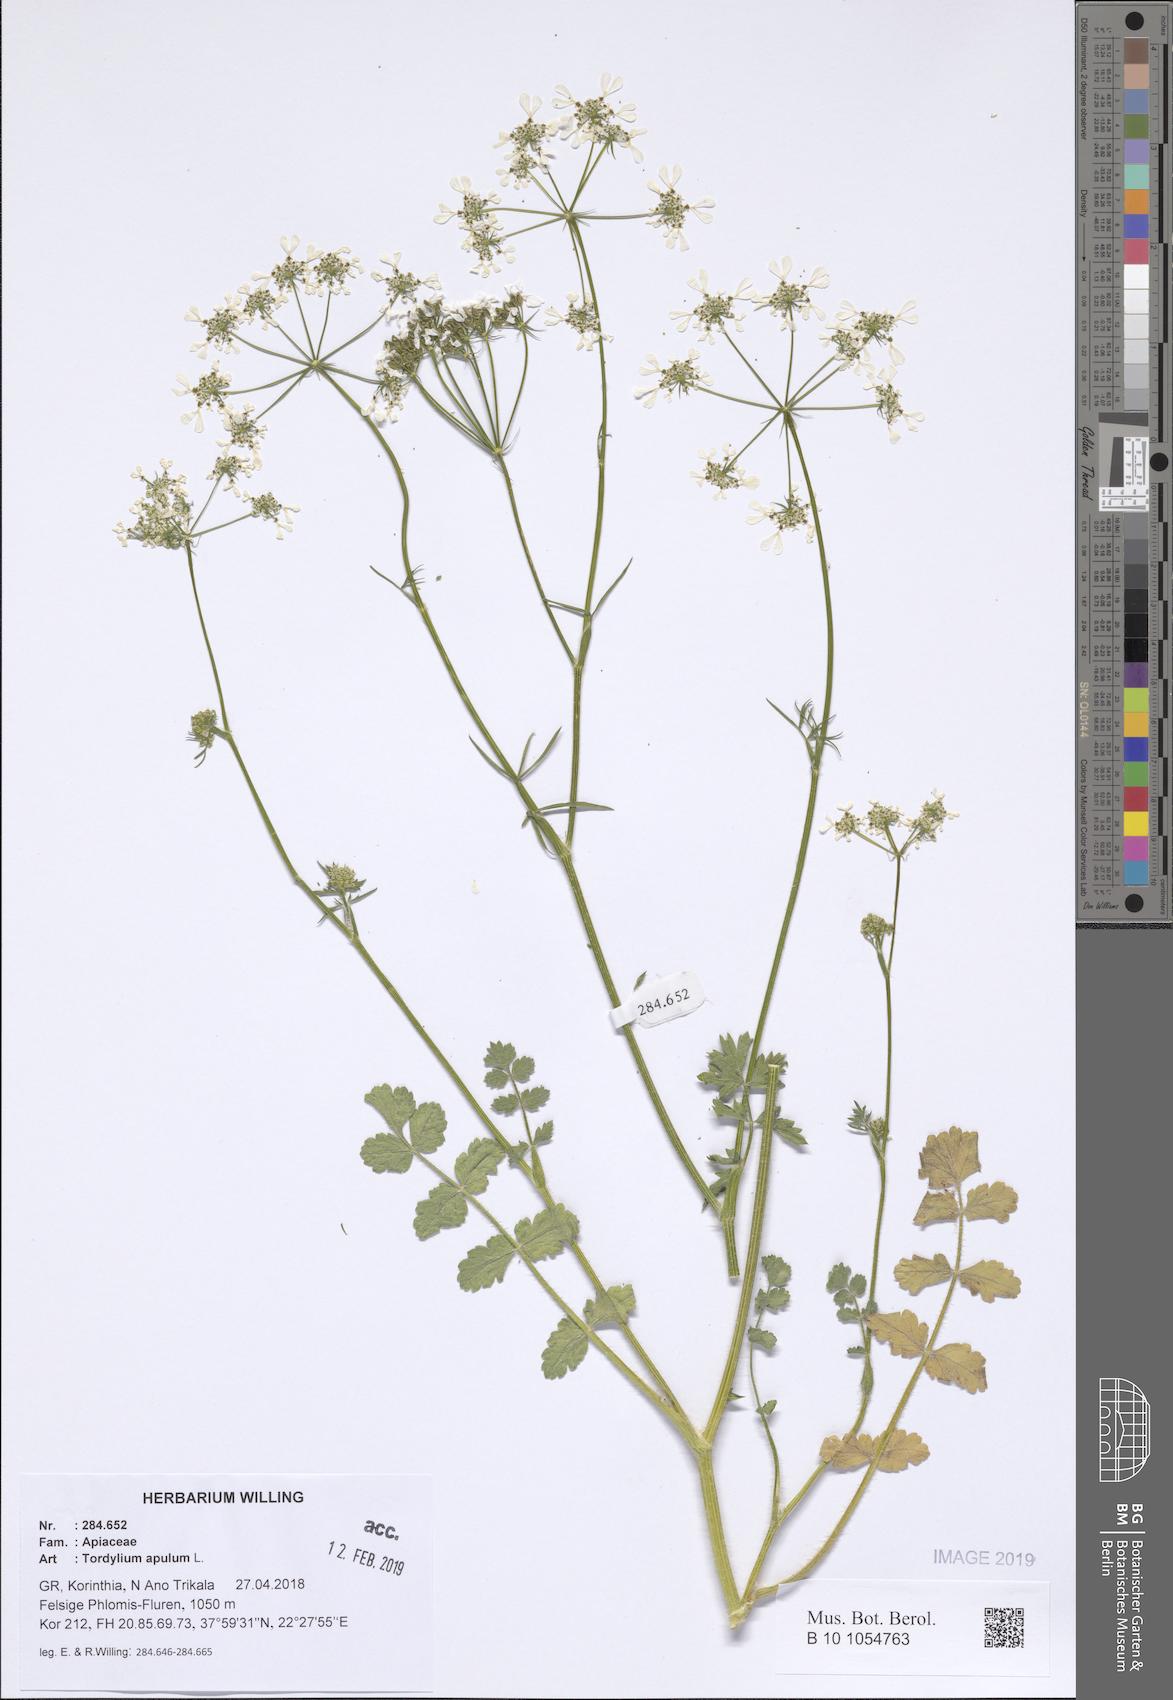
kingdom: Plantae
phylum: Tracheophyta
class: Magnoliopsida
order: Apiales
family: Apiaceae
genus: Tordylium
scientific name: Tordylium apulum
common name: Mediterranean hartwort
